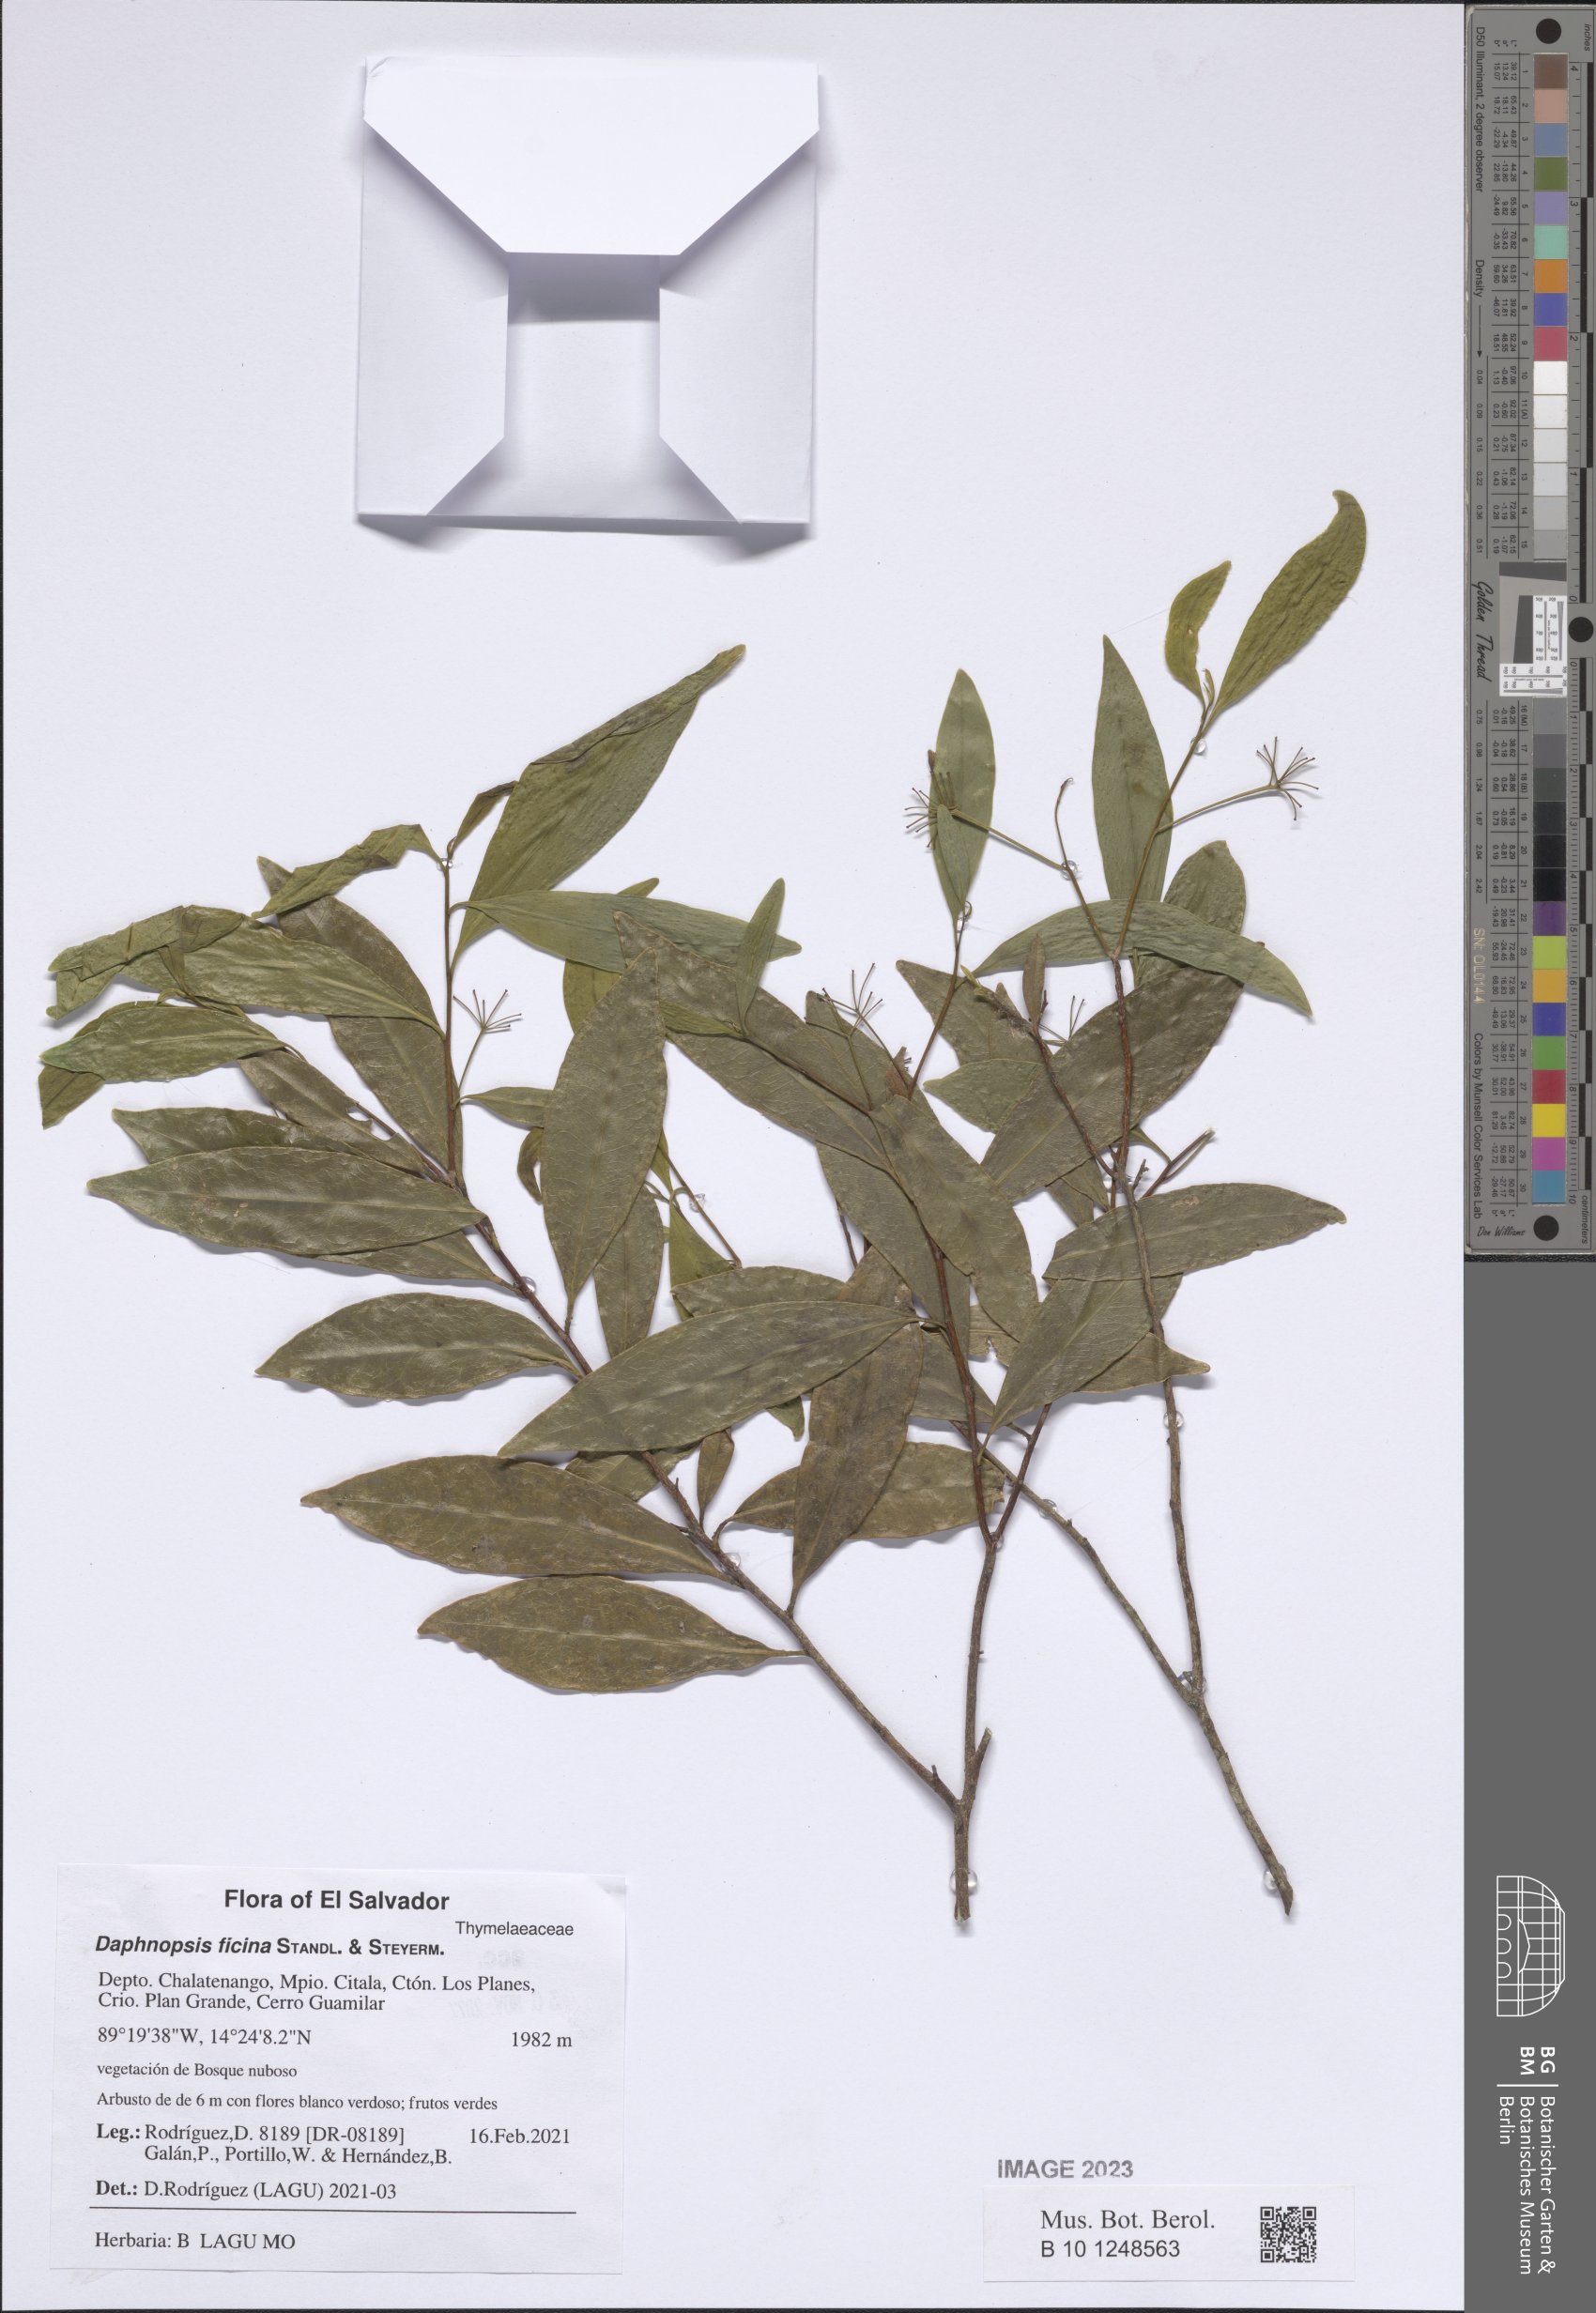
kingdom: Plantae
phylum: Tracheophyta
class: Magnoliopsida
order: Malvales
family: Thymelaeaceae
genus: Daphnopsis
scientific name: Daphnopsis ficina
